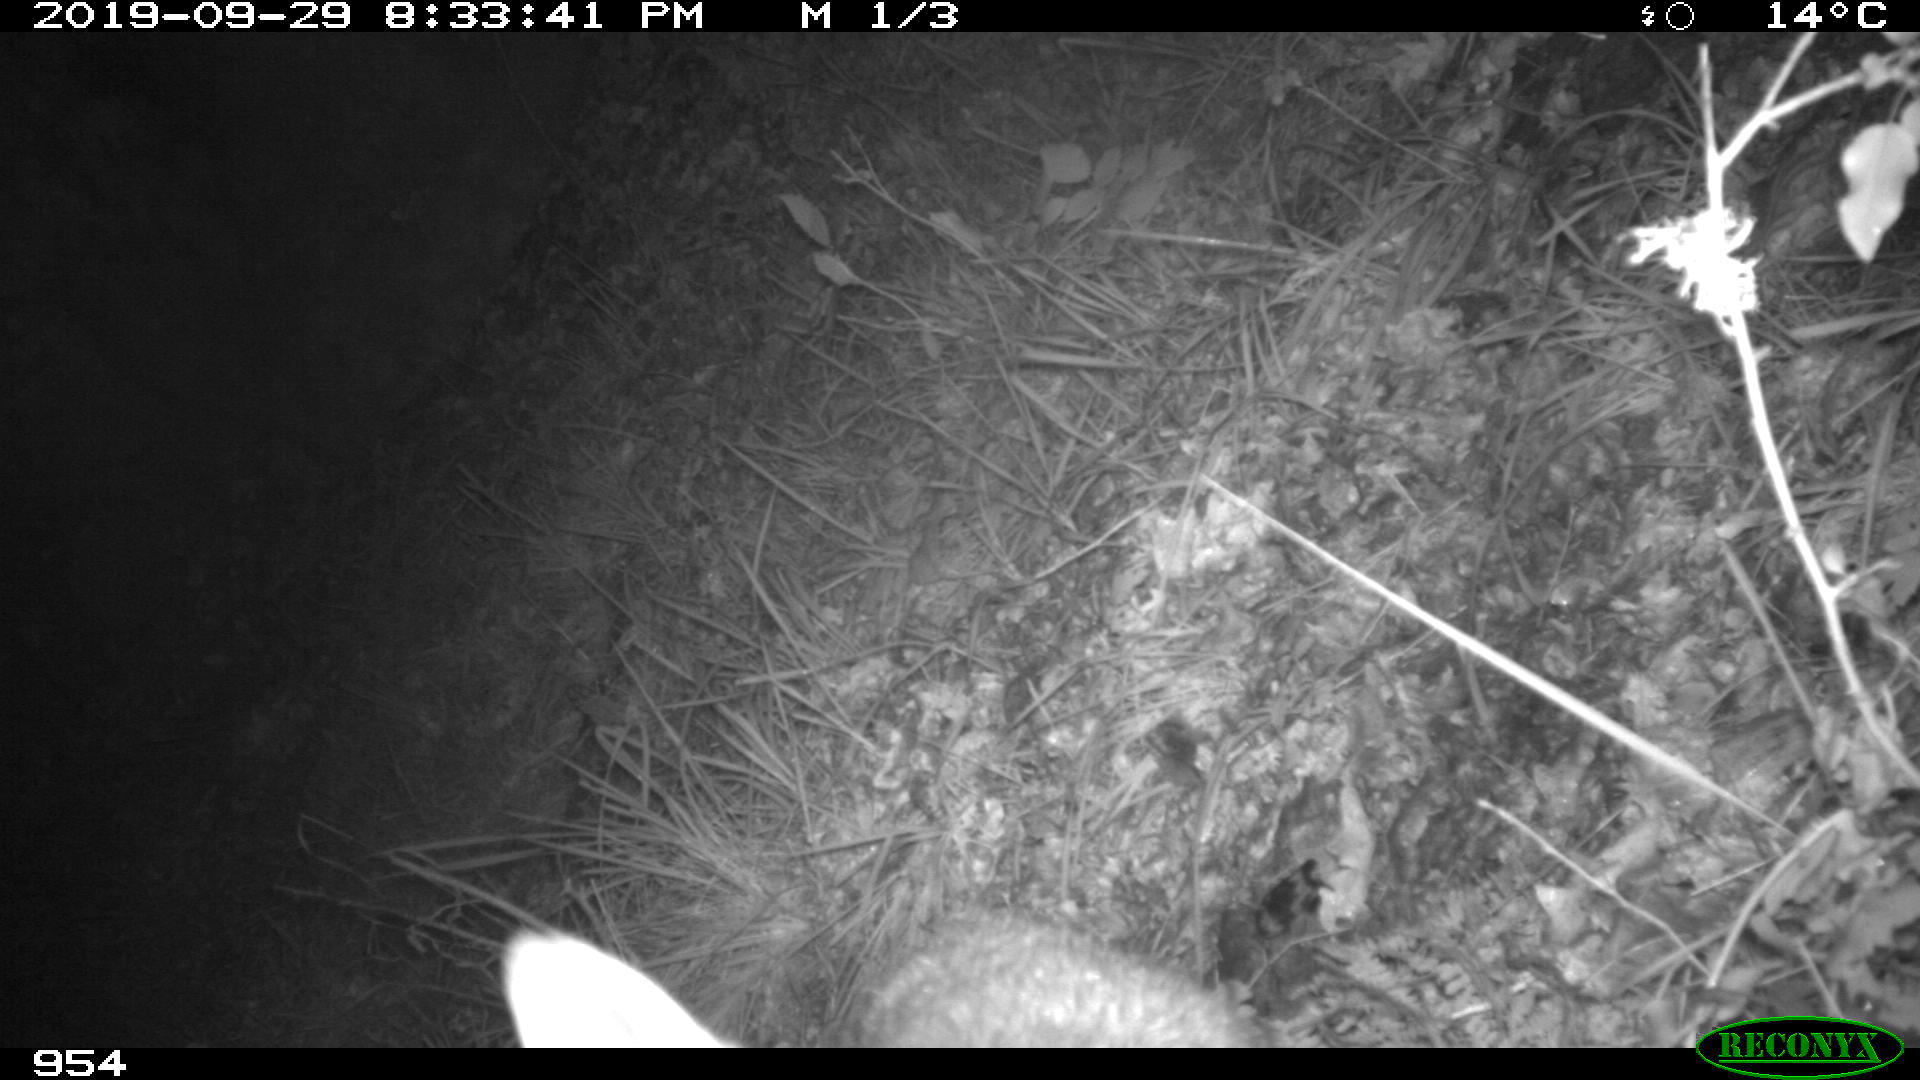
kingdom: Animalia
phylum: Chordata
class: Mammalia
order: Carnivora
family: Canidae
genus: Vulpes
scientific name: Vulpes vulpes
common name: Red fox
